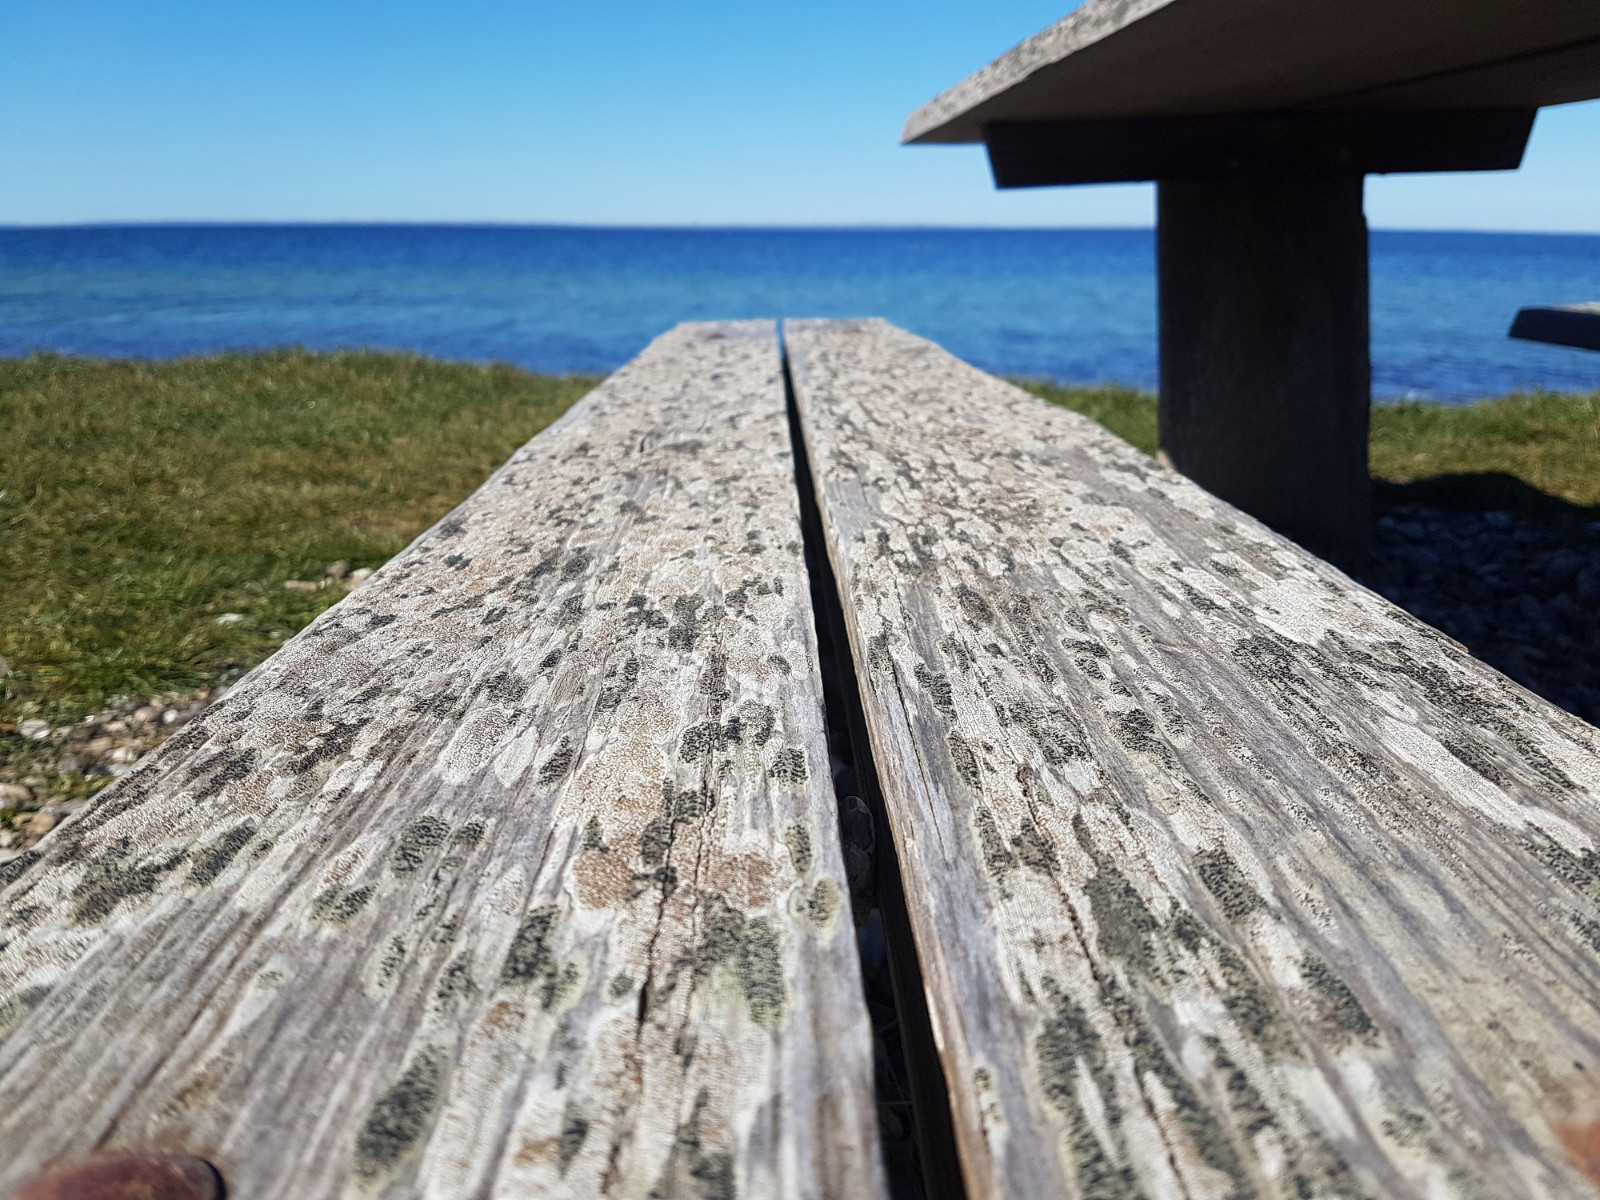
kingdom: Fungi
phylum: Ascomycota
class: Lecanoromycetes
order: Lecanorales
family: Lecanoraceae
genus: Lecanora
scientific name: Lecanora chlarotera
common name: brun kantskivelav
